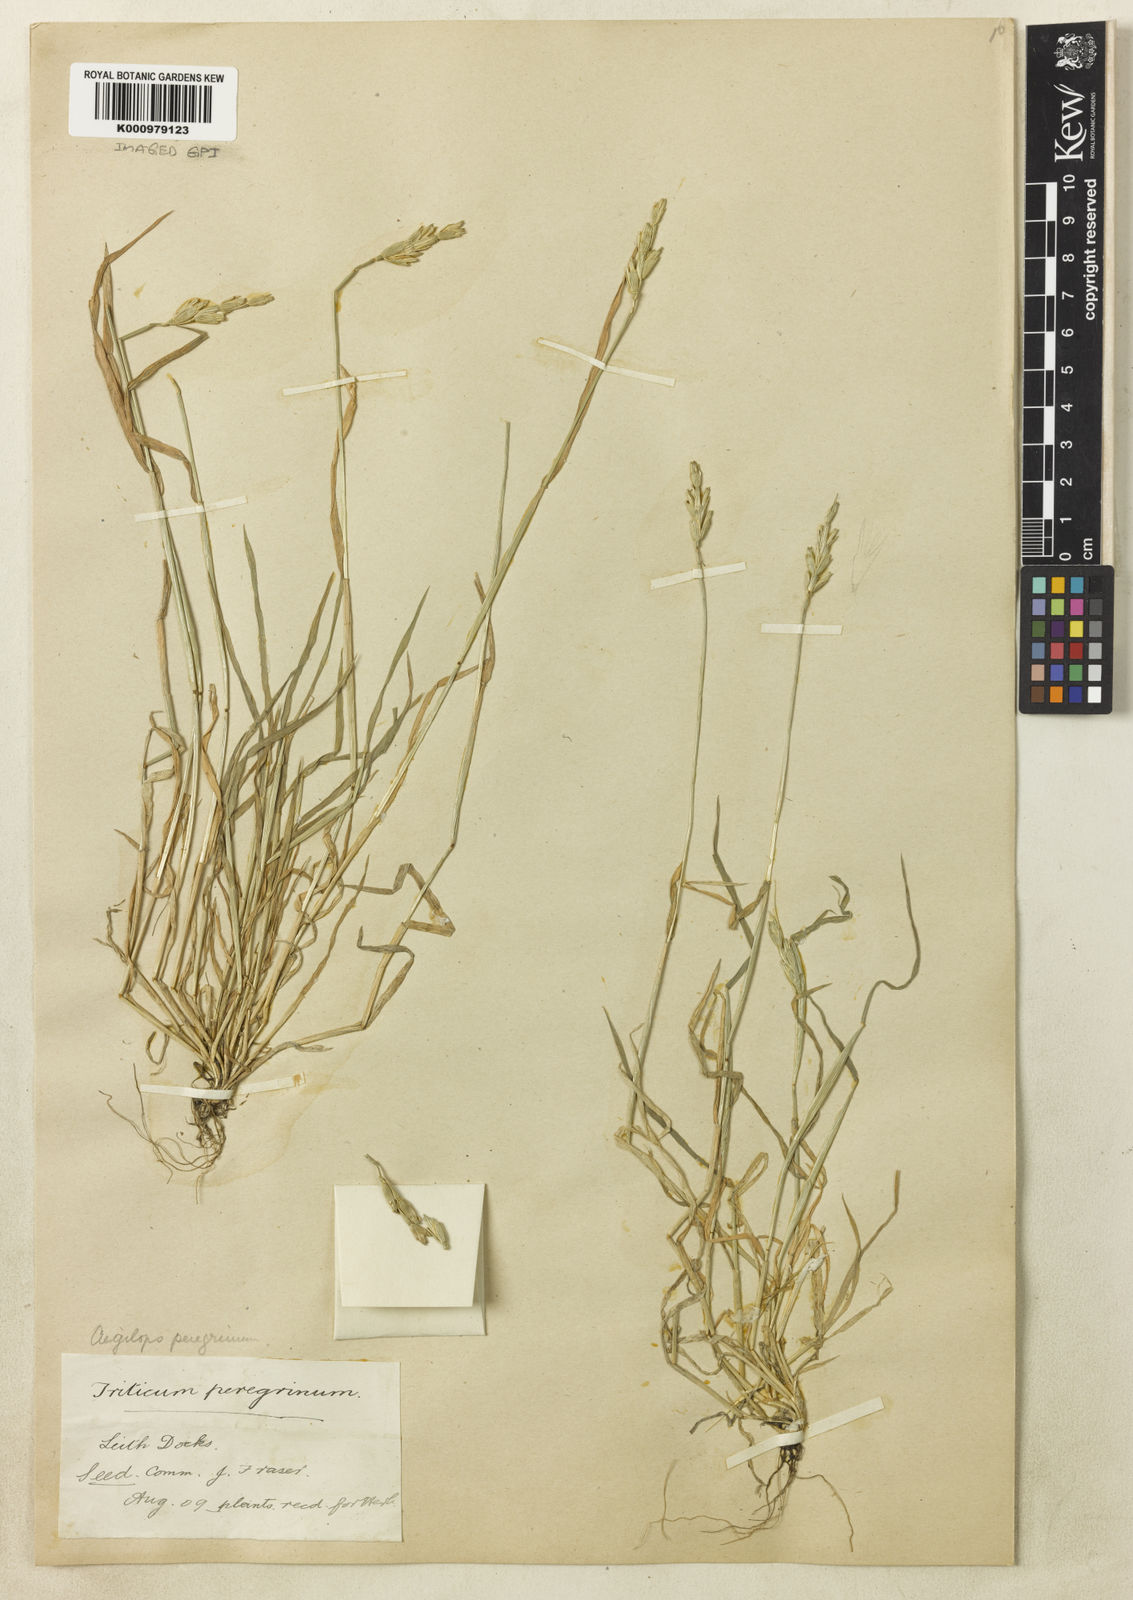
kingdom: Plantae
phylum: Tracheophyta
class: Liliopsida
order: Poales
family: Poaceae
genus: Aegilops
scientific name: Aegilops uniaristata
